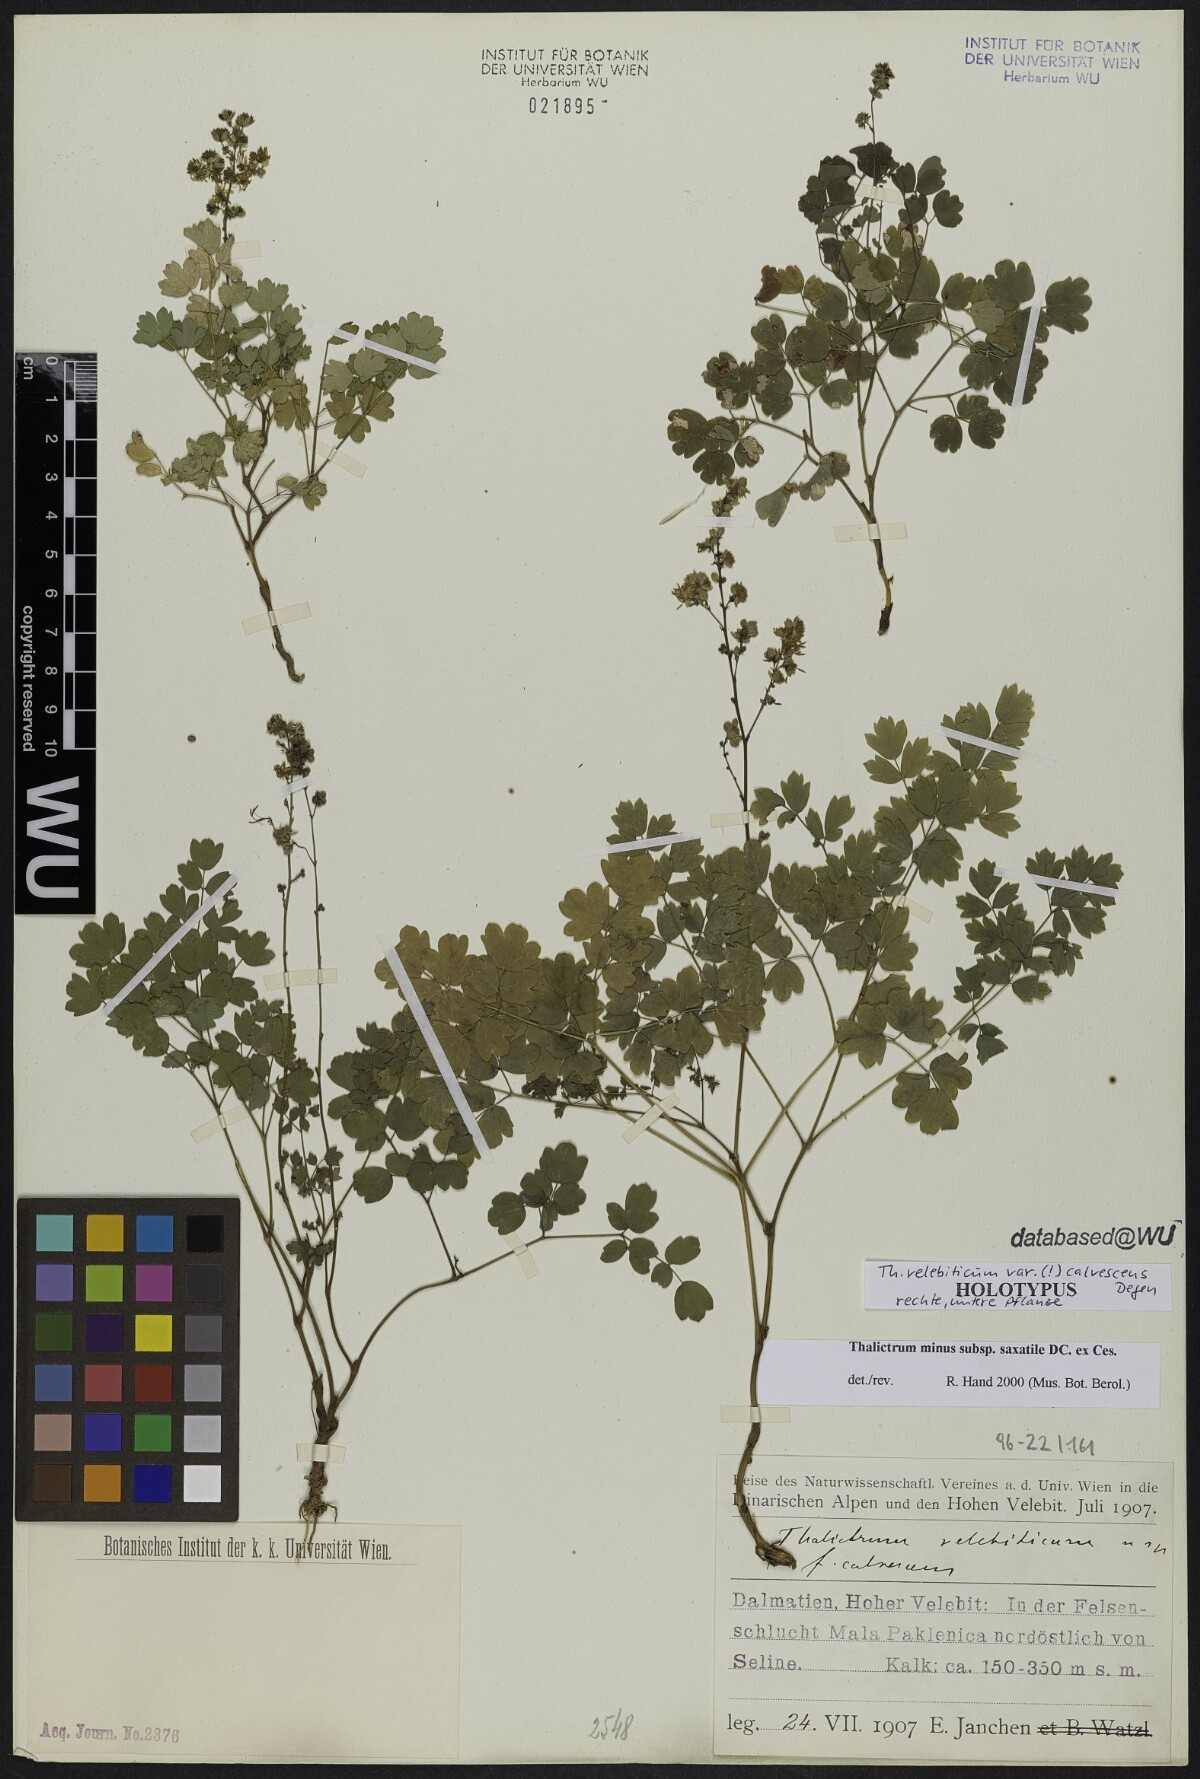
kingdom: Plantae
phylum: Tracheophyta
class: Magnoliopsida
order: Ranunculales
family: Ranunculaceae
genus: Thalictrum
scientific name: Thalictrum minus
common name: Lesser meadow-rue
